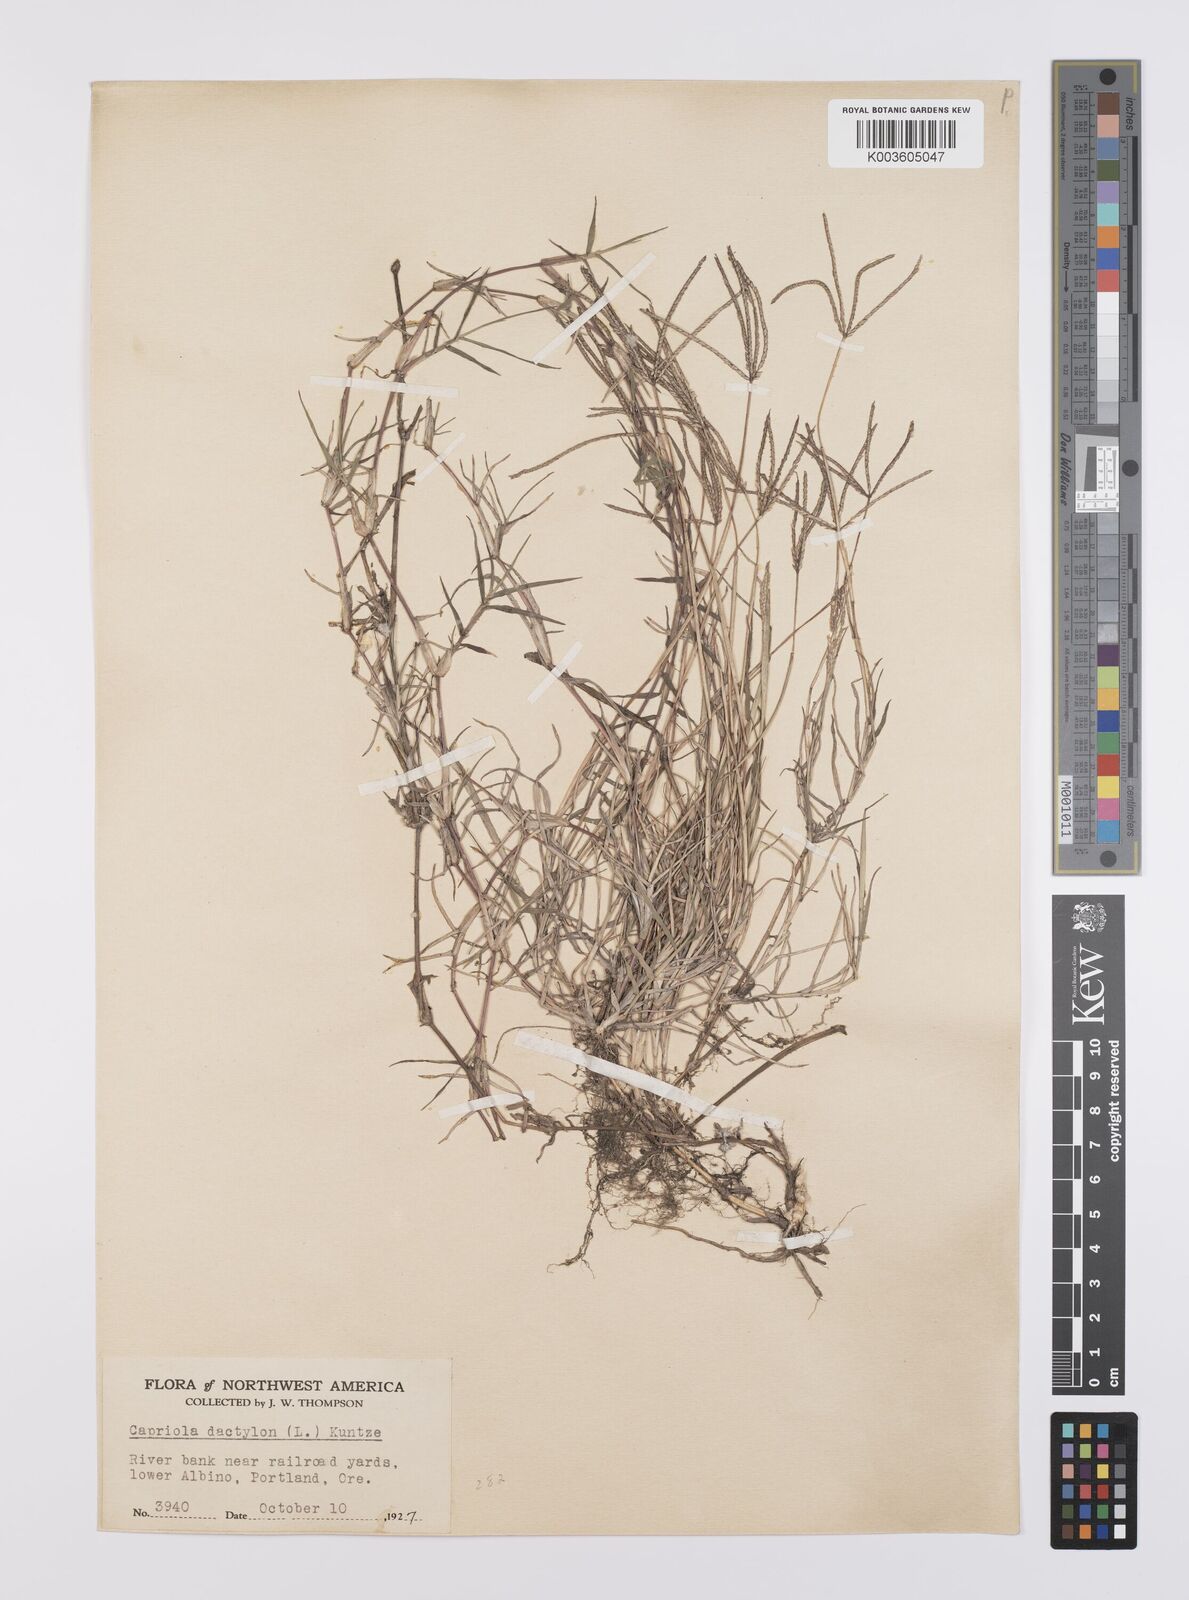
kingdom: Plantae
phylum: Tracheophyta
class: Liliopsida
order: Poales
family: Poaceae
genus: Cynodon
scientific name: Cynodon dactylon
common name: Bermuda grass
